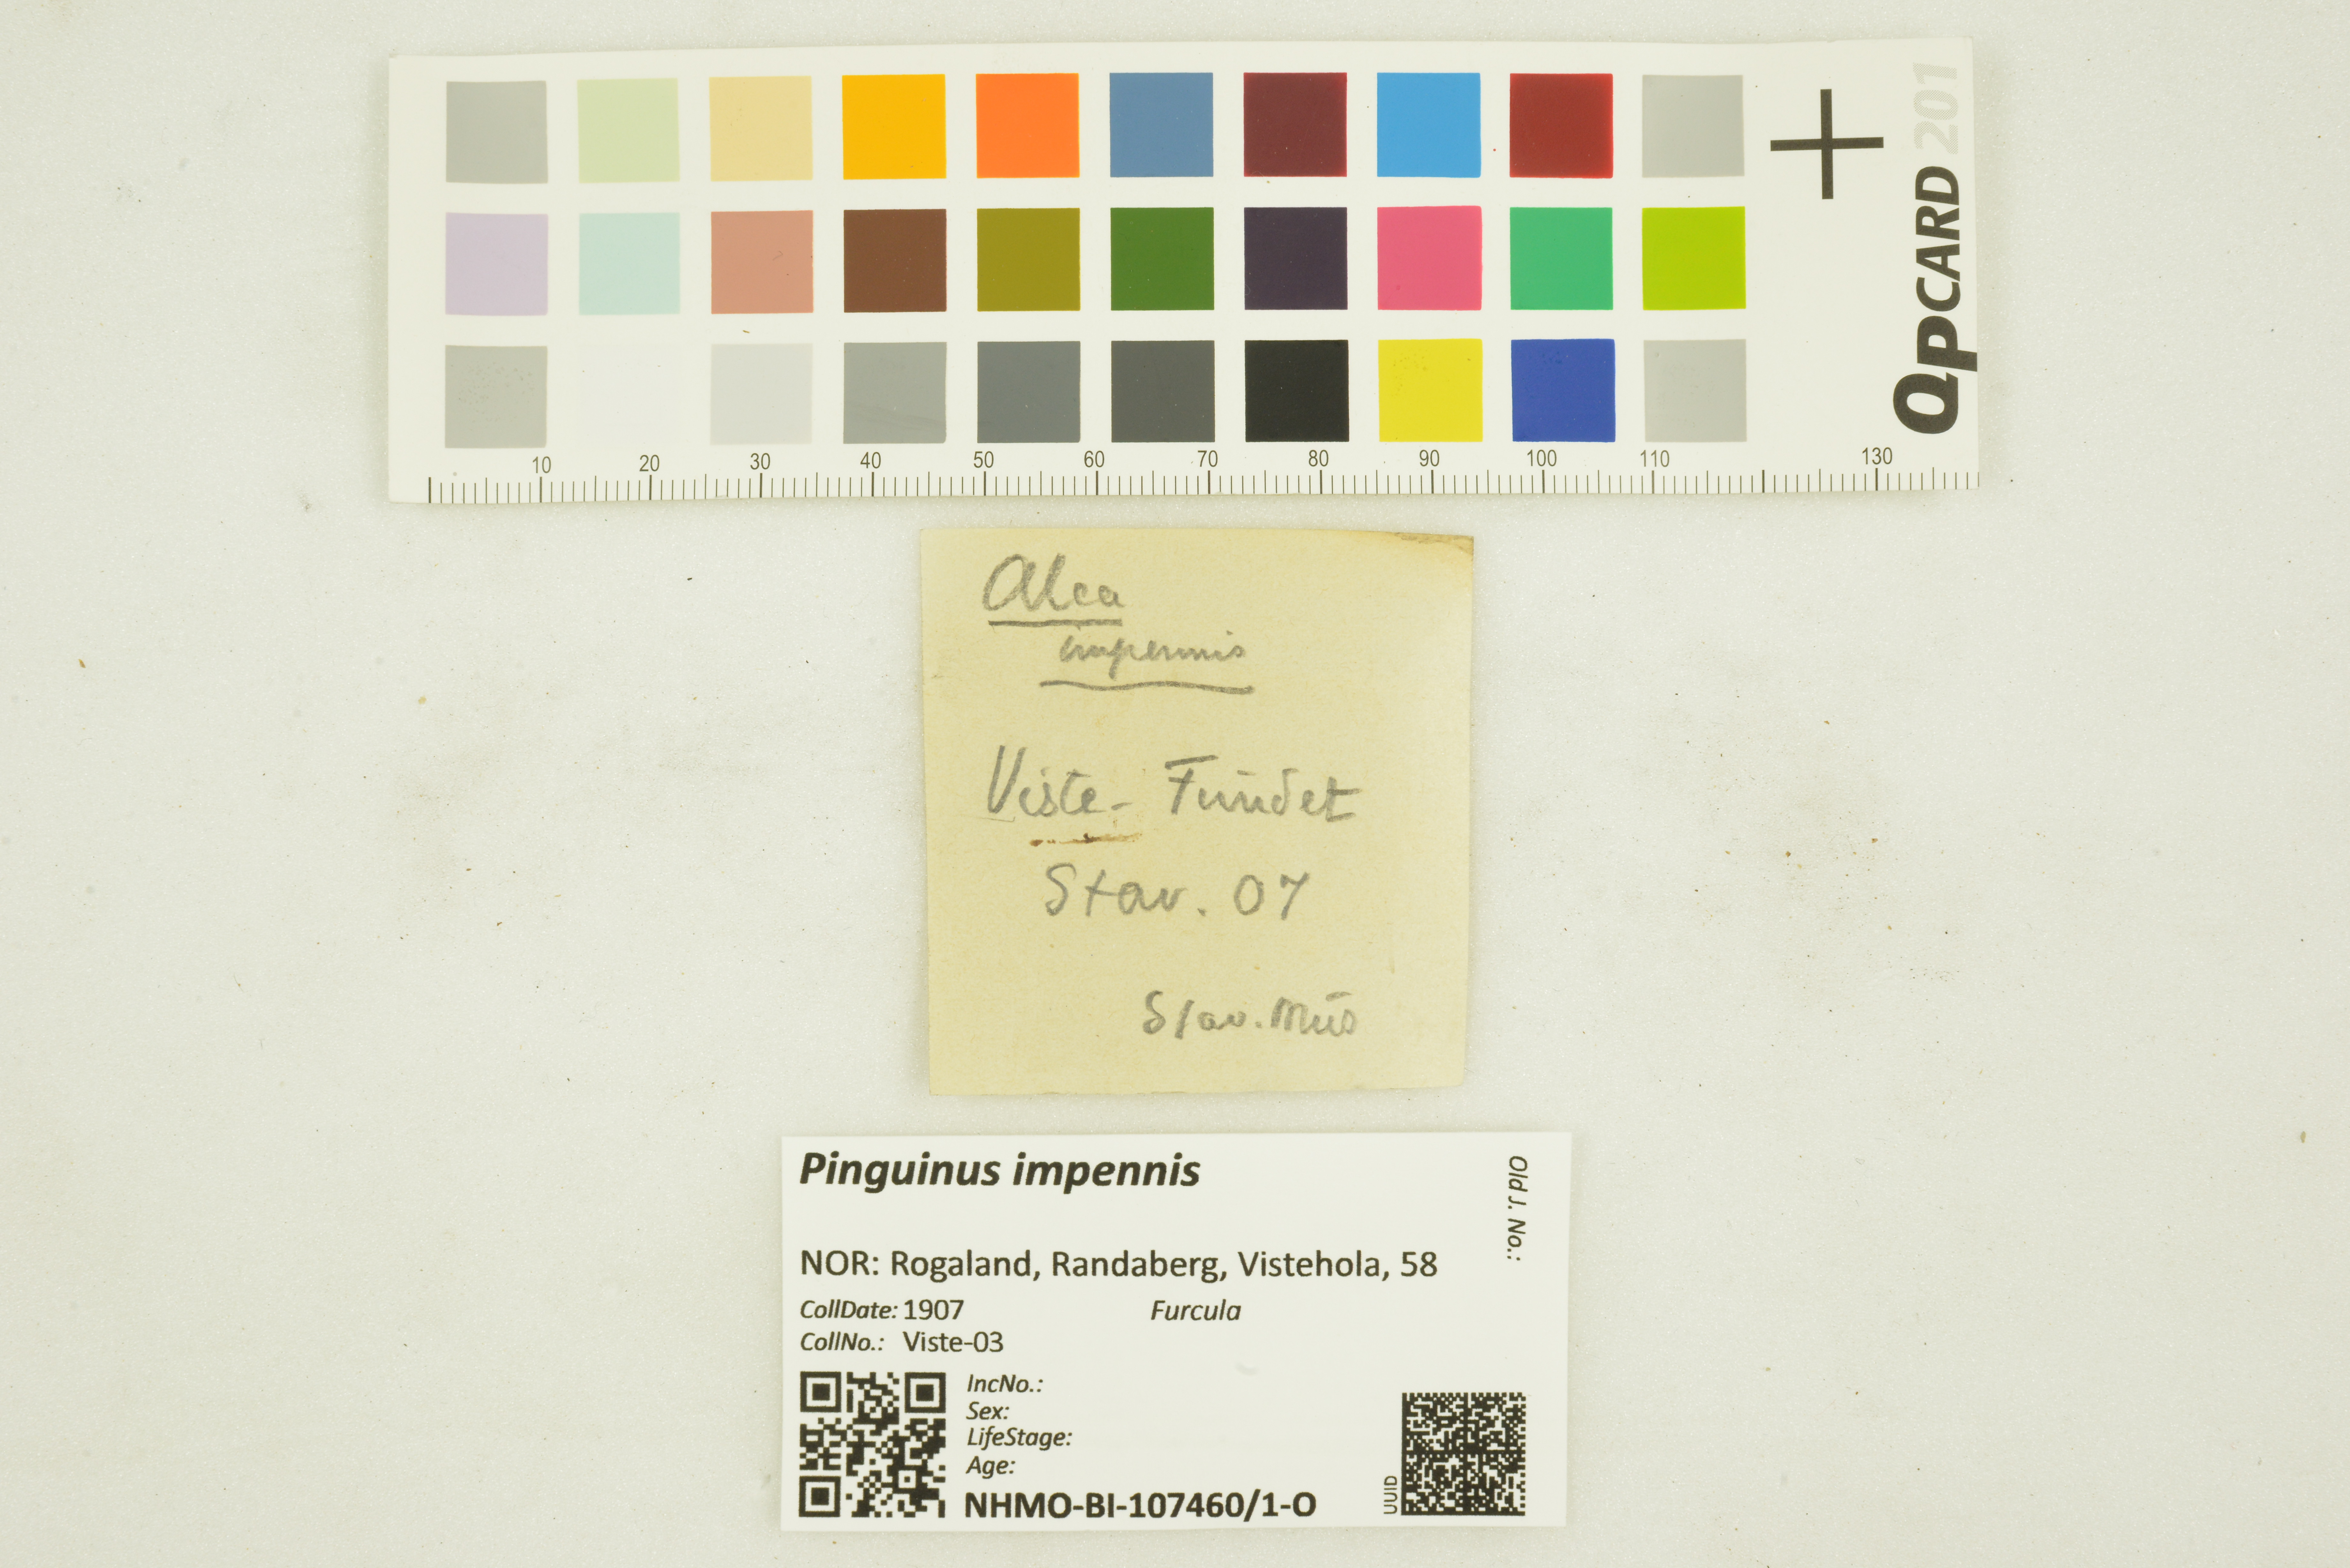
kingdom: Animalia
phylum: Chordata
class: Aves
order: Charadriiformes
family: Alcidae
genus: Pinguinus
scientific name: Pinguinus impennis
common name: Great auk
